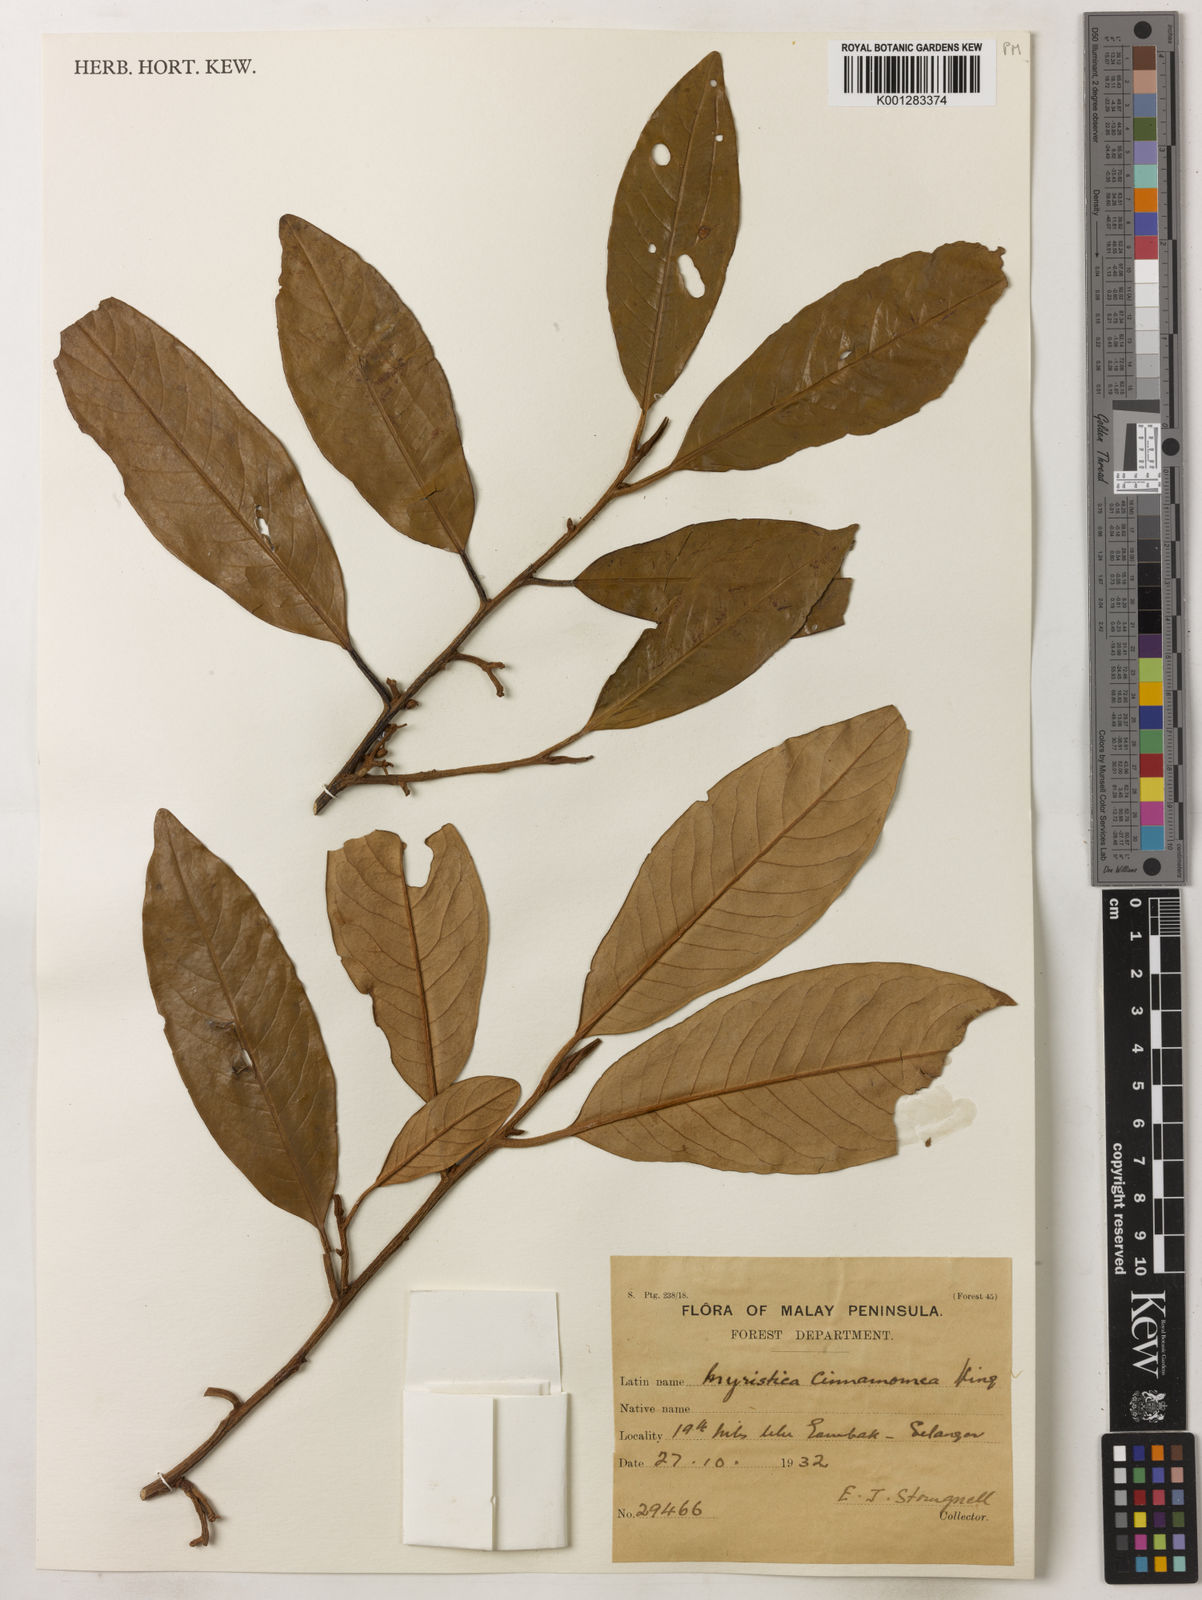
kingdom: Plantae
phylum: Tracheophyta
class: Magnoliopsida
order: Magnoliales
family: Myristicaceae
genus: Myristica
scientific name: Myristica cinnamomea
